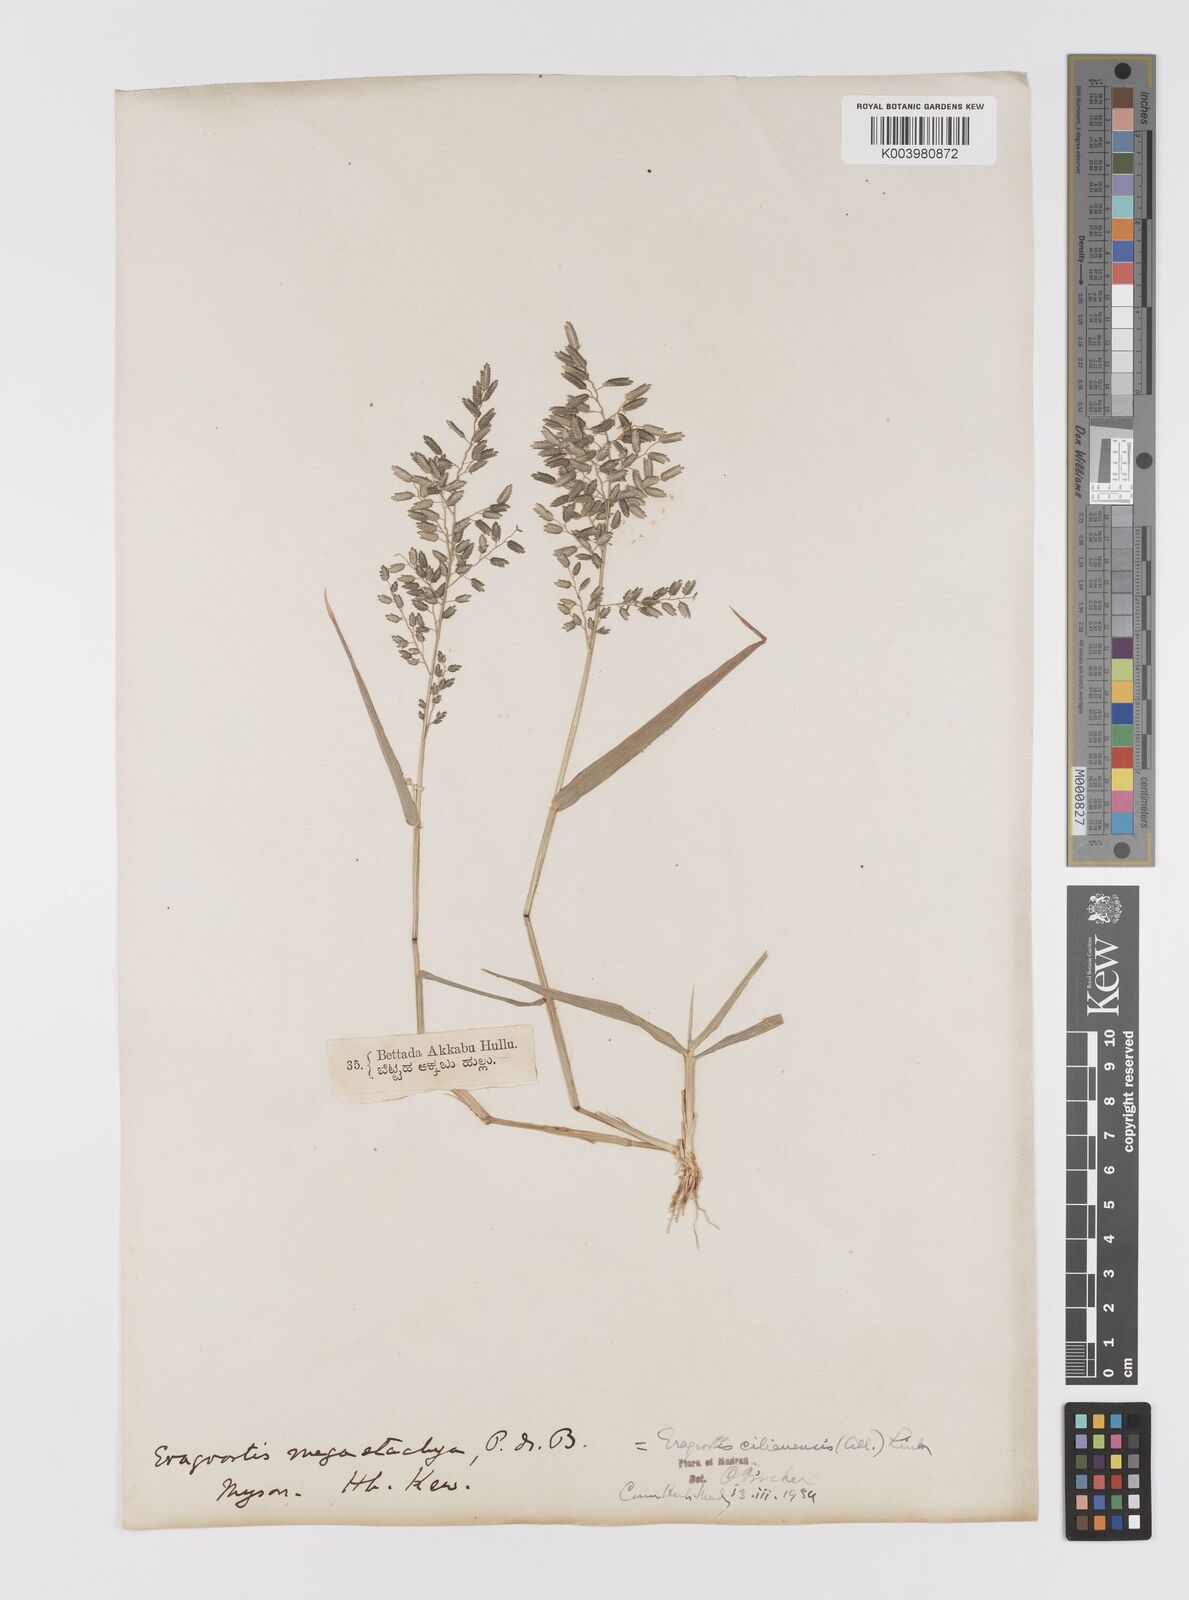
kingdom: Plantae
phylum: Tracheophyta
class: Liliopsida
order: Poales
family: Poaceae
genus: Eragrostis
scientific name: Eragrostis cilianensis
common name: Stinkgrass
